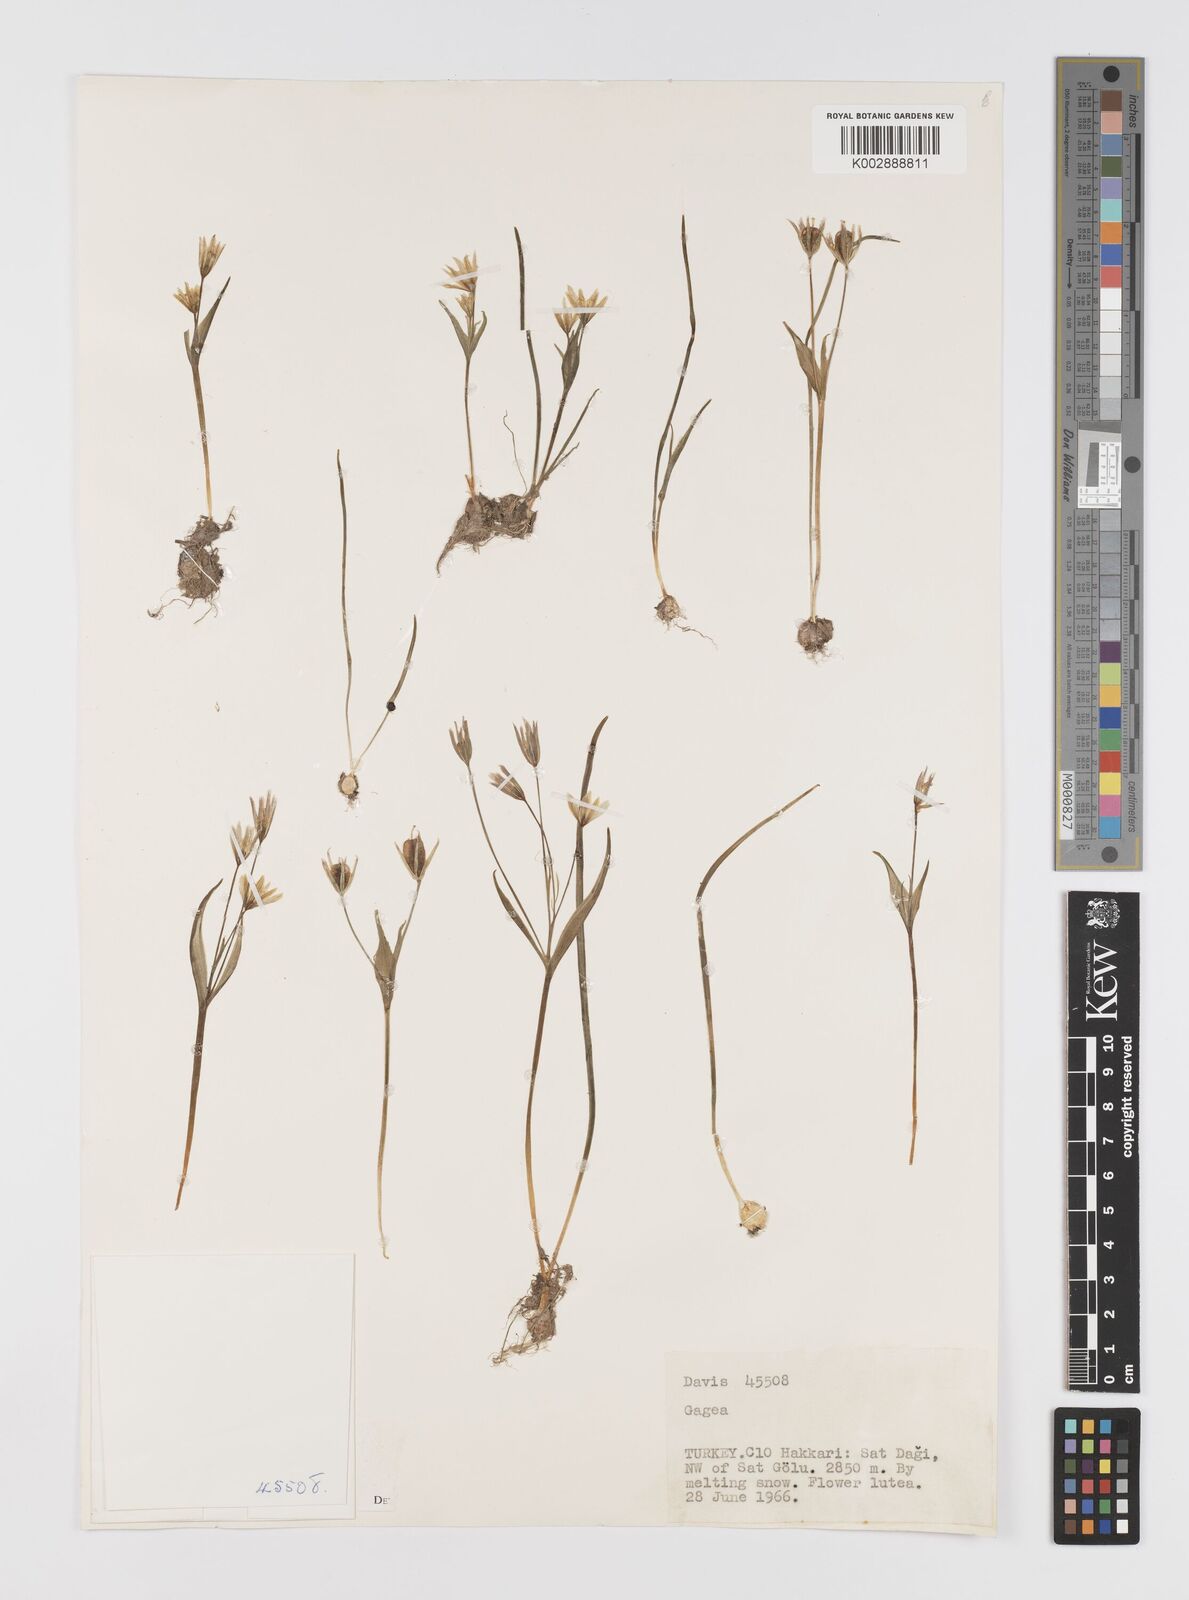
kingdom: Plantae
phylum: Tracheophyta
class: Liliopsida
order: Liliales
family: Liliaceae
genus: Gagea
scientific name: Gagea
